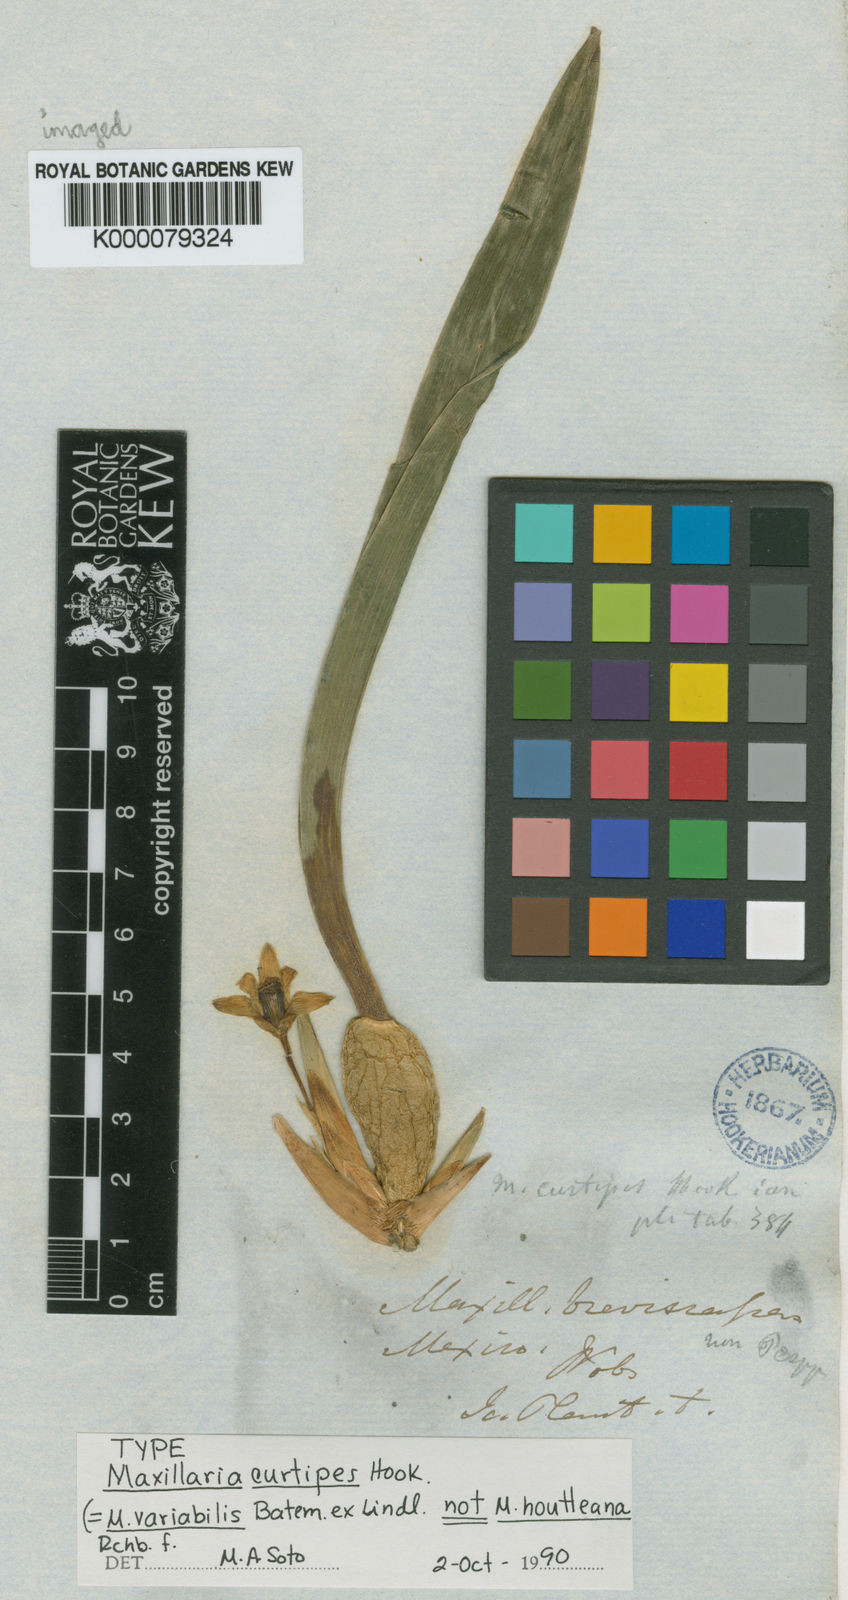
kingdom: Plantae
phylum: Tracheophyta
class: Liliopsida
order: Asparagales
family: Orchidaceae
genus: Maxillaria
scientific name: Maxillaria variabilis
